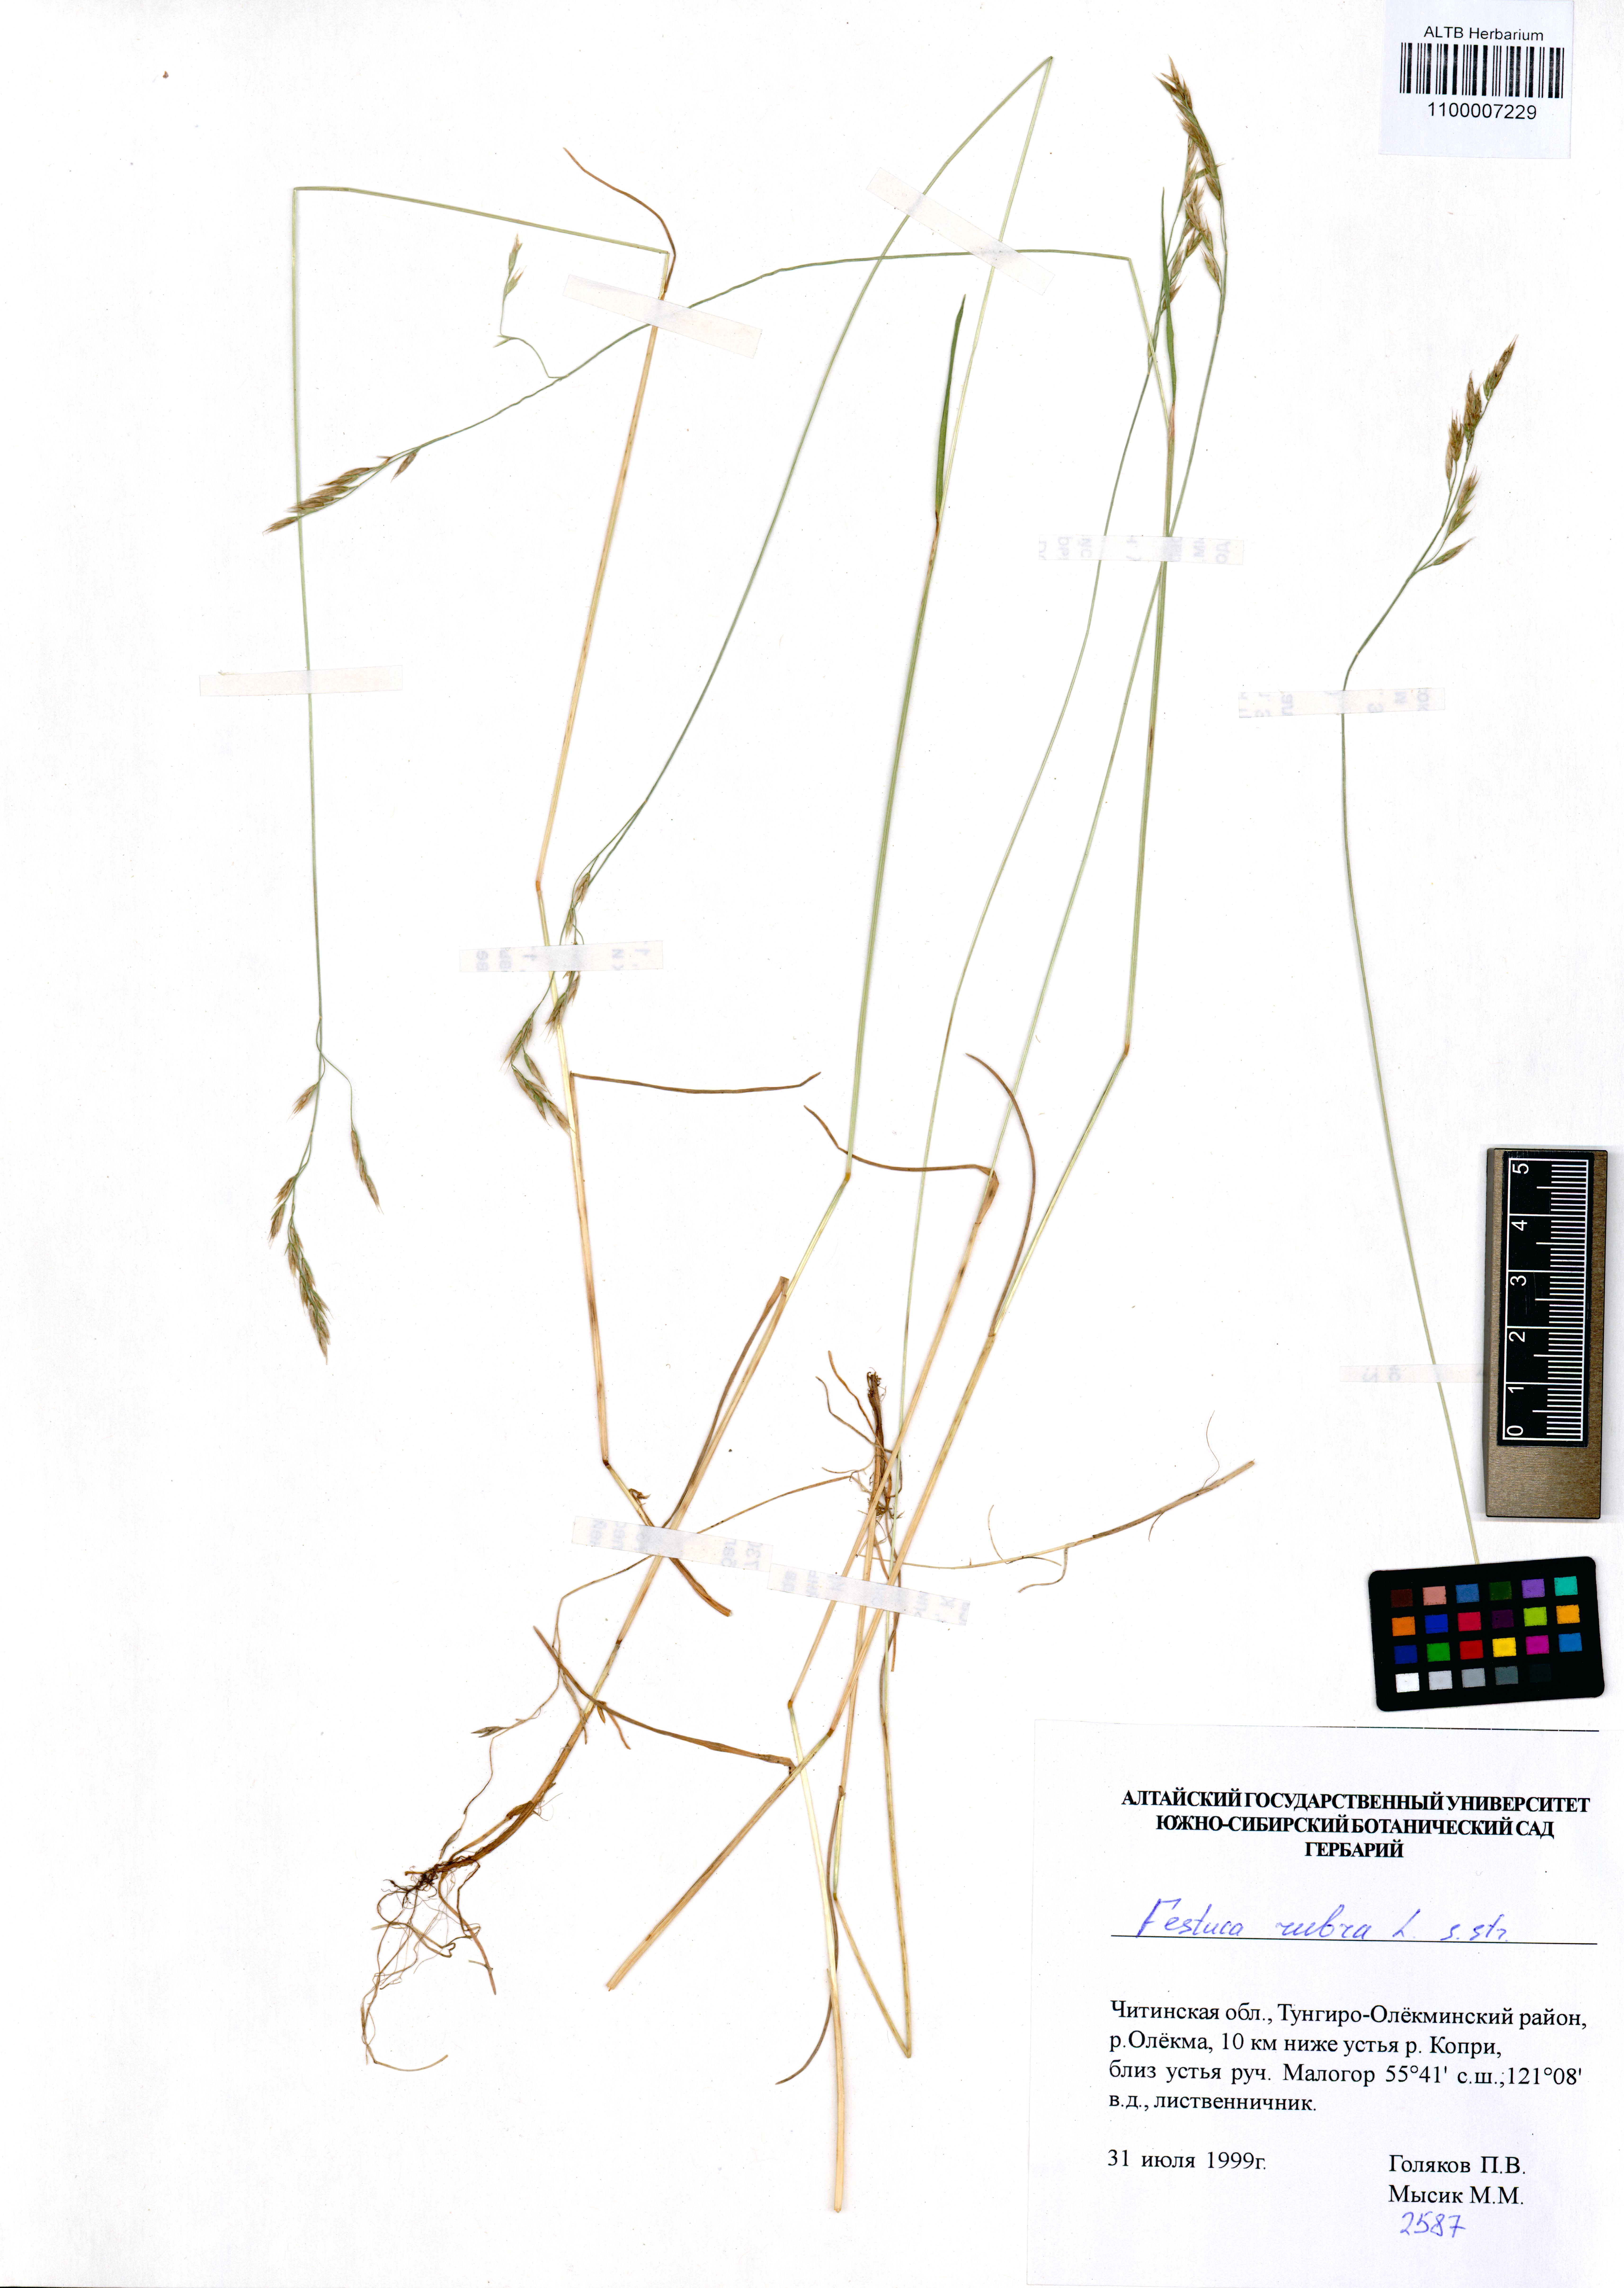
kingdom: Plantae
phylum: Tracheophyta
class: Liliopsida
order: Poales
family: Poaceae
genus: Festuca
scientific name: Festuca rubra
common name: Red fescue
